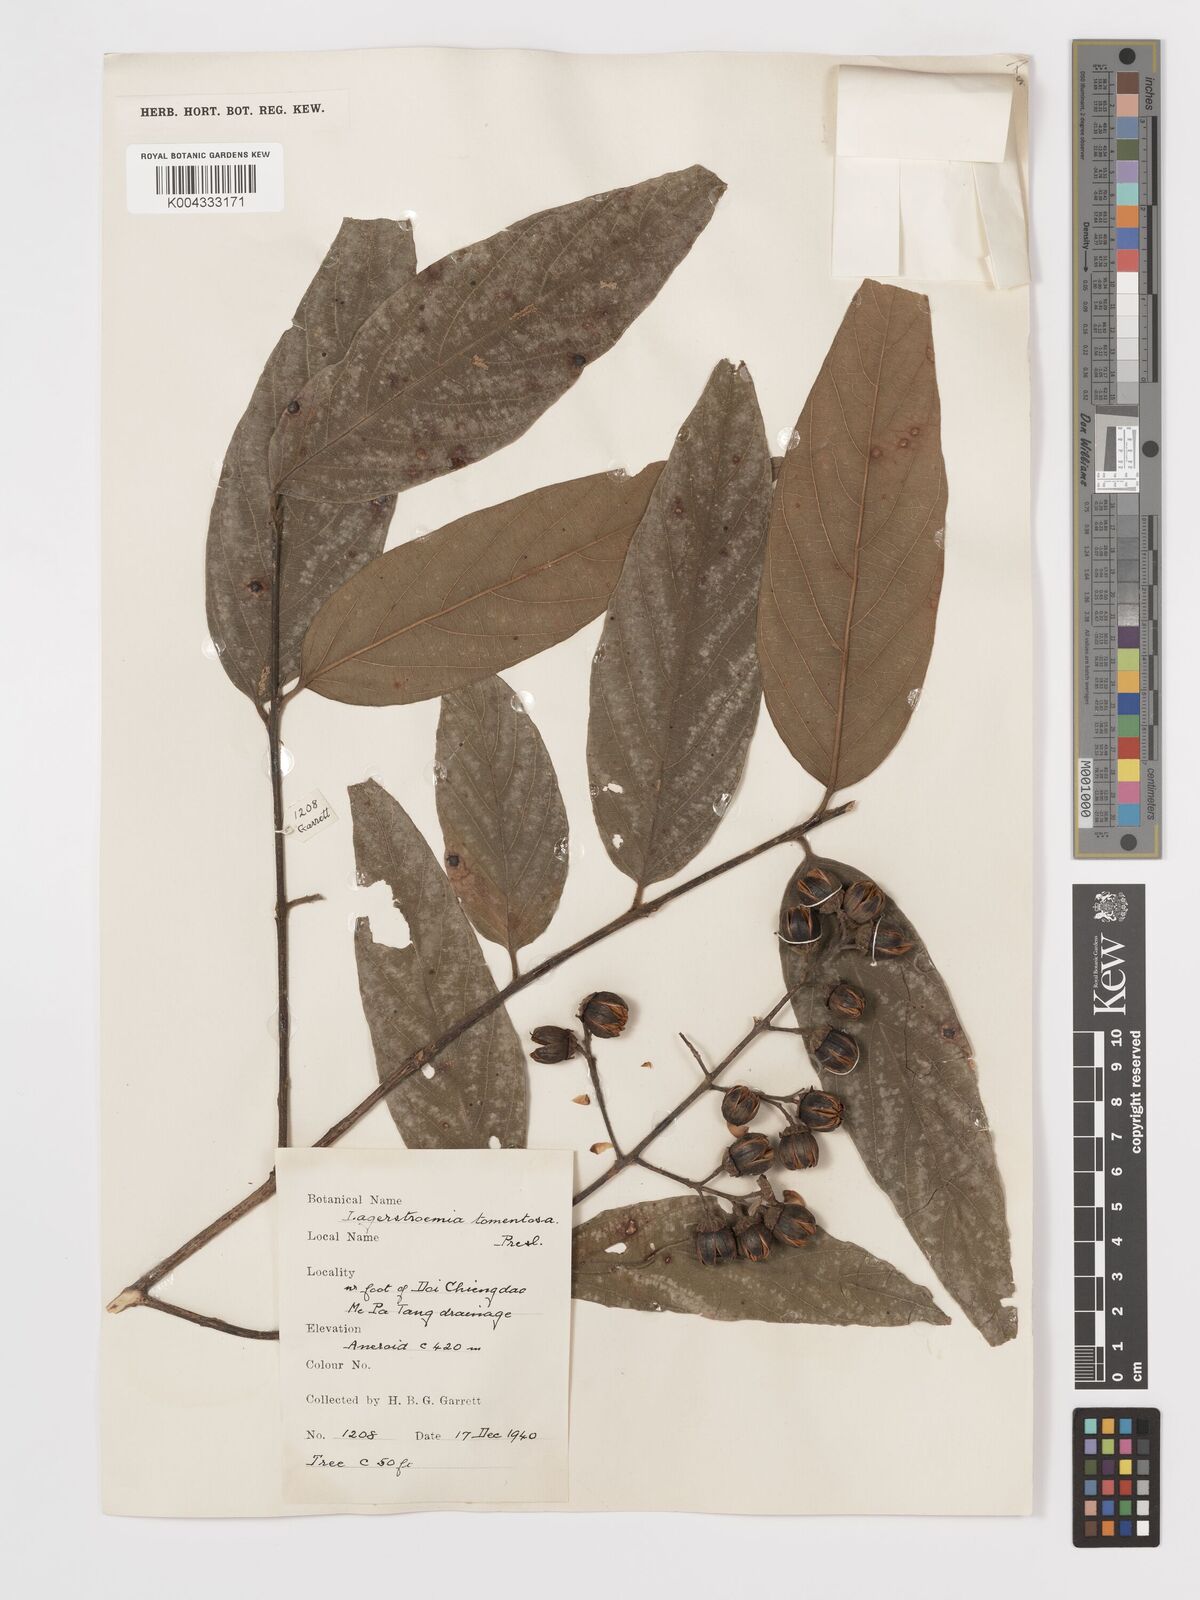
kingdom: Plantae
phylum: Tracheophyta
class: Magnoliopsida
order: Myrtales
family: Lythraceae
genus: Lagerstroemia
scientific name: Lagerstroemia tomentosa
